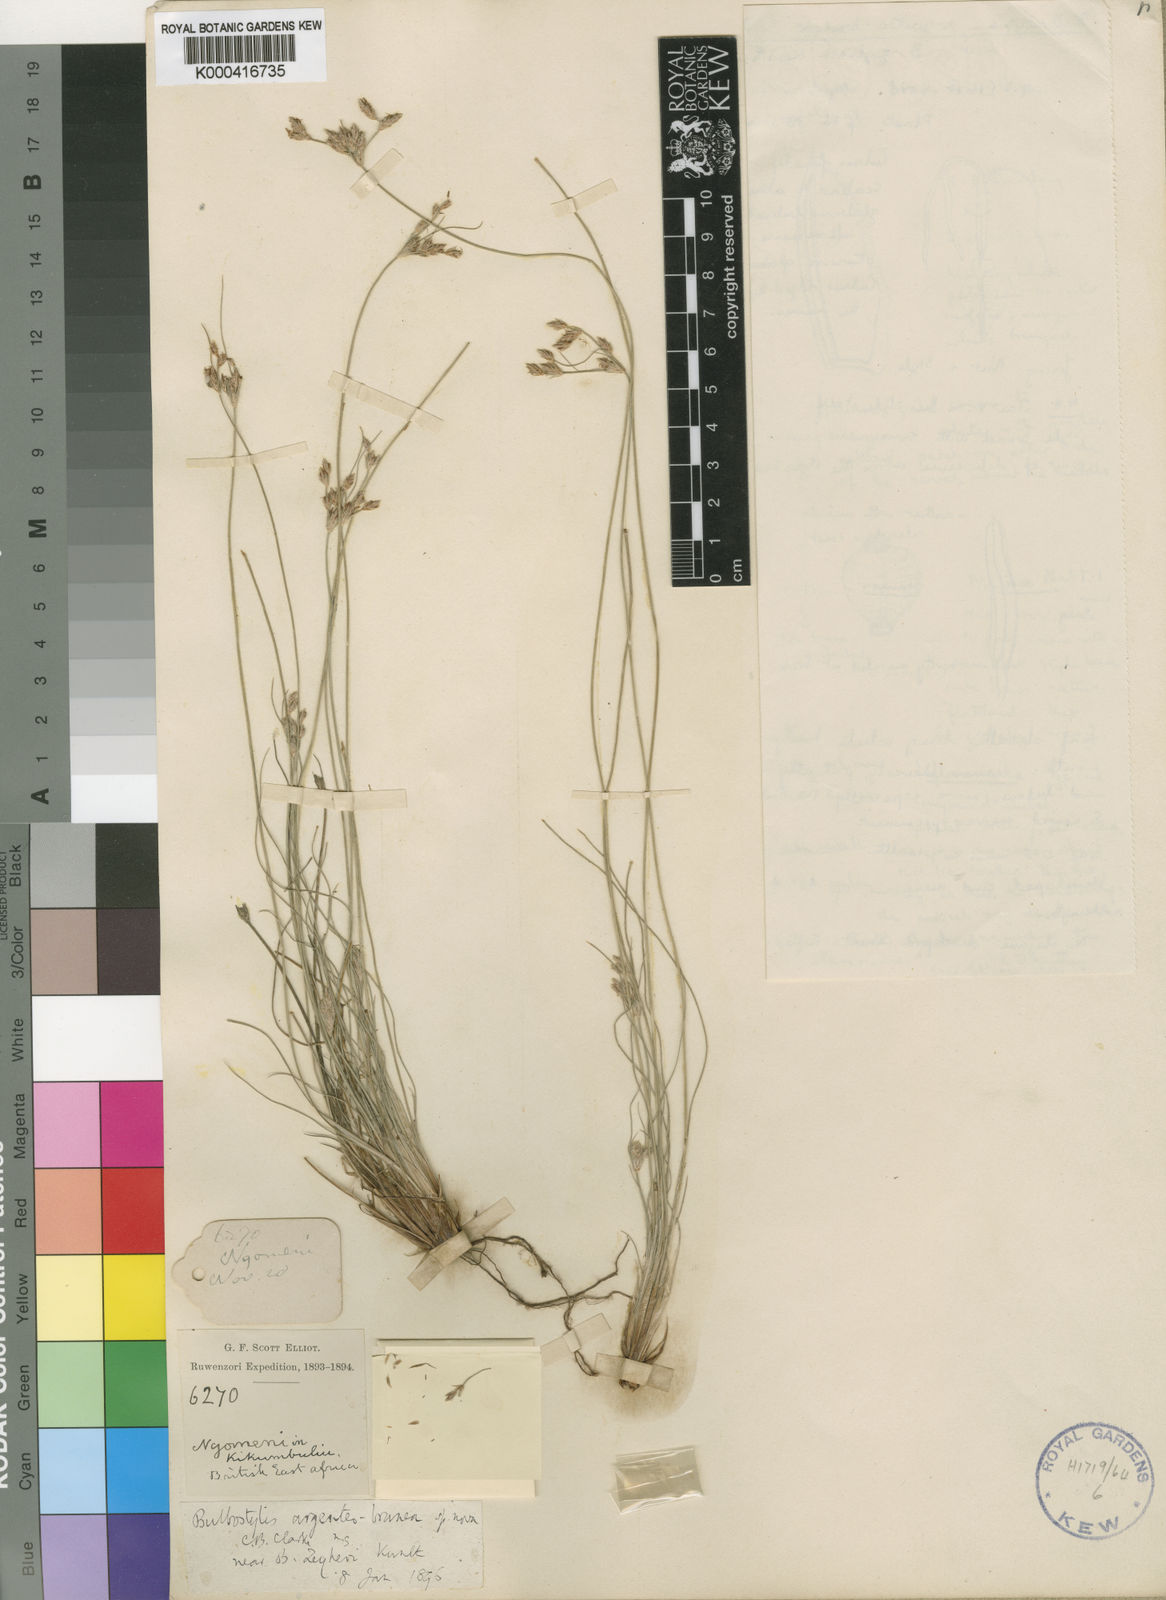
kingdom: Plantae
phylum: Tracheophyta
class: Liliopsida
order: Poales
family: Cyperaceae
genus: Bulbostylis
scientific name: Bulbostylis argenteobrunea
